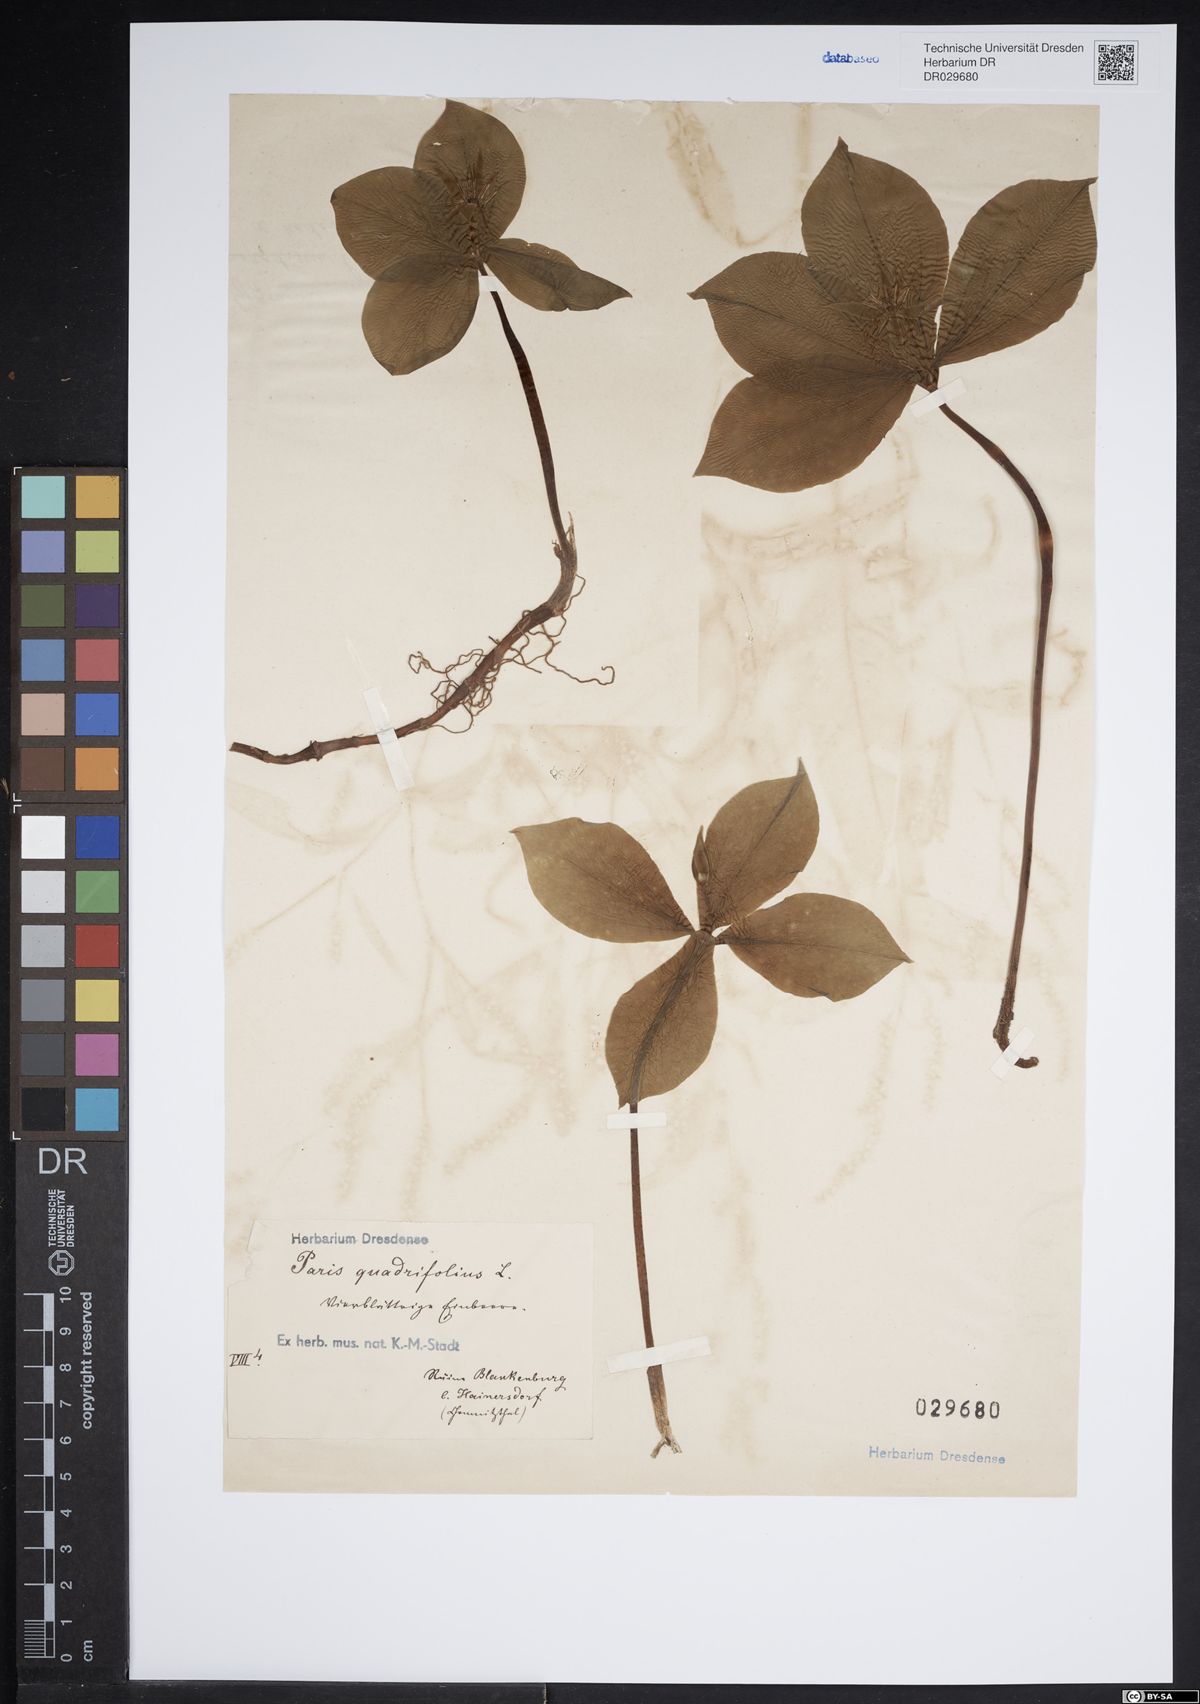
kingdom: Plantae
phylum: Tracheophyta
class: Liliopsida
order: Liliales
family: Melanthiaceae
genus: Paris
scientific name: Paris quadrifolia
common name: Herb-paris
